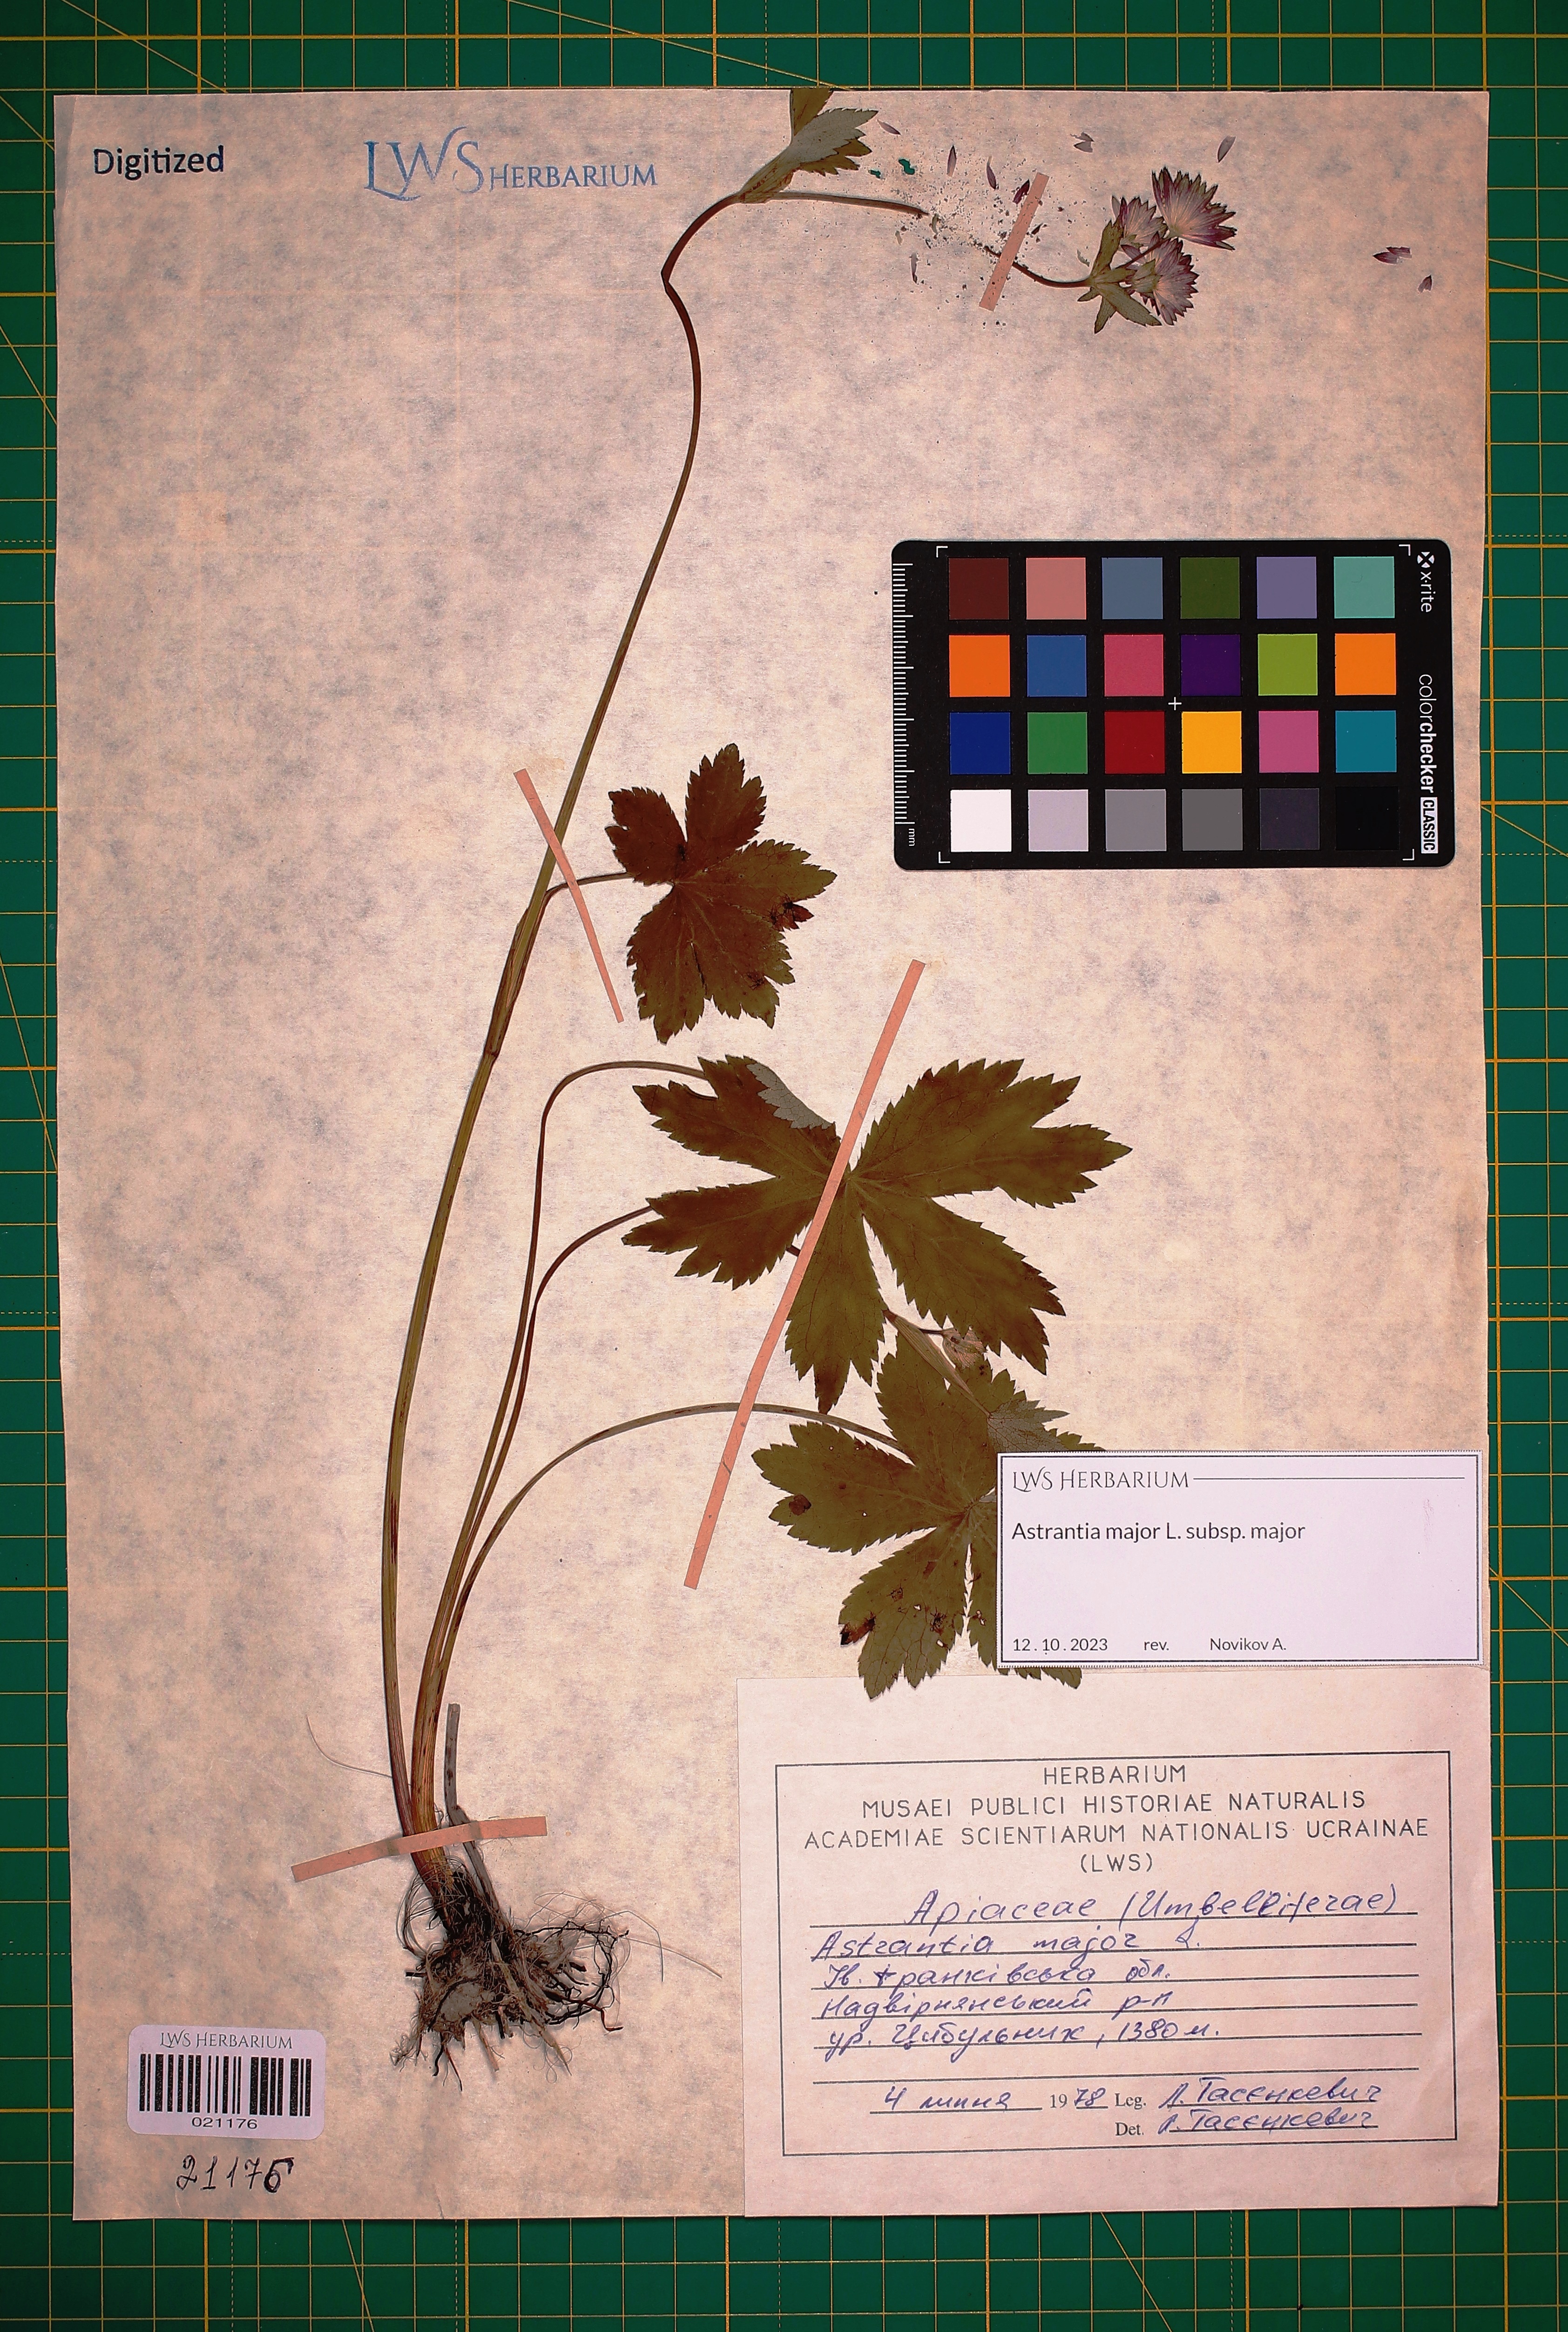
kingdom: Plantae
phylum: Tracheophyta
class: Magnoliopsida
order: Apiales
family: Apiaceae
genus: Astrantia
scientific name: Astrantia major
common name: Greater masterwort
